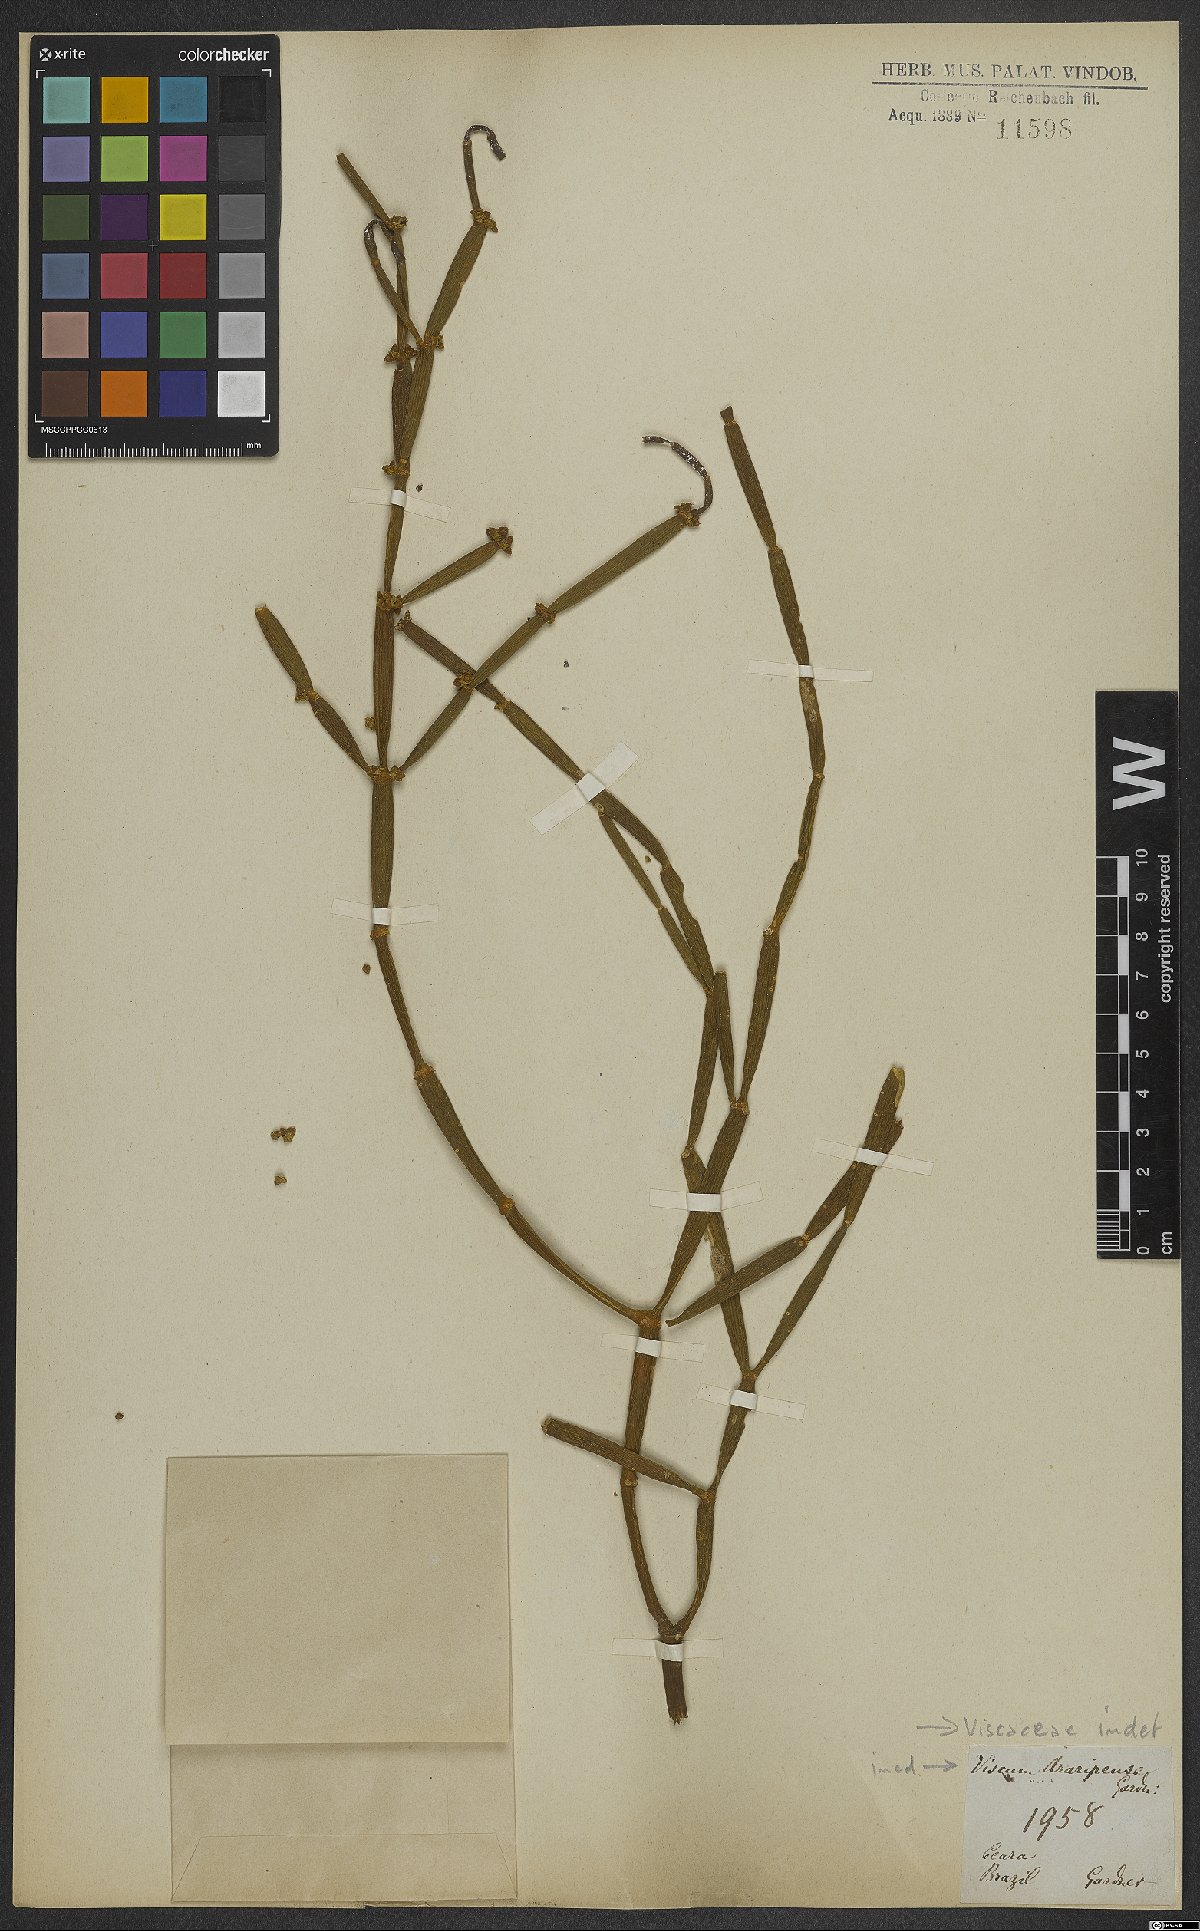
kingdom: Plantae
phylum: Tracheophyta
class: Magnoliopsida
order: Santalales
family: Viscaceae
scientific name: Viscaceae
